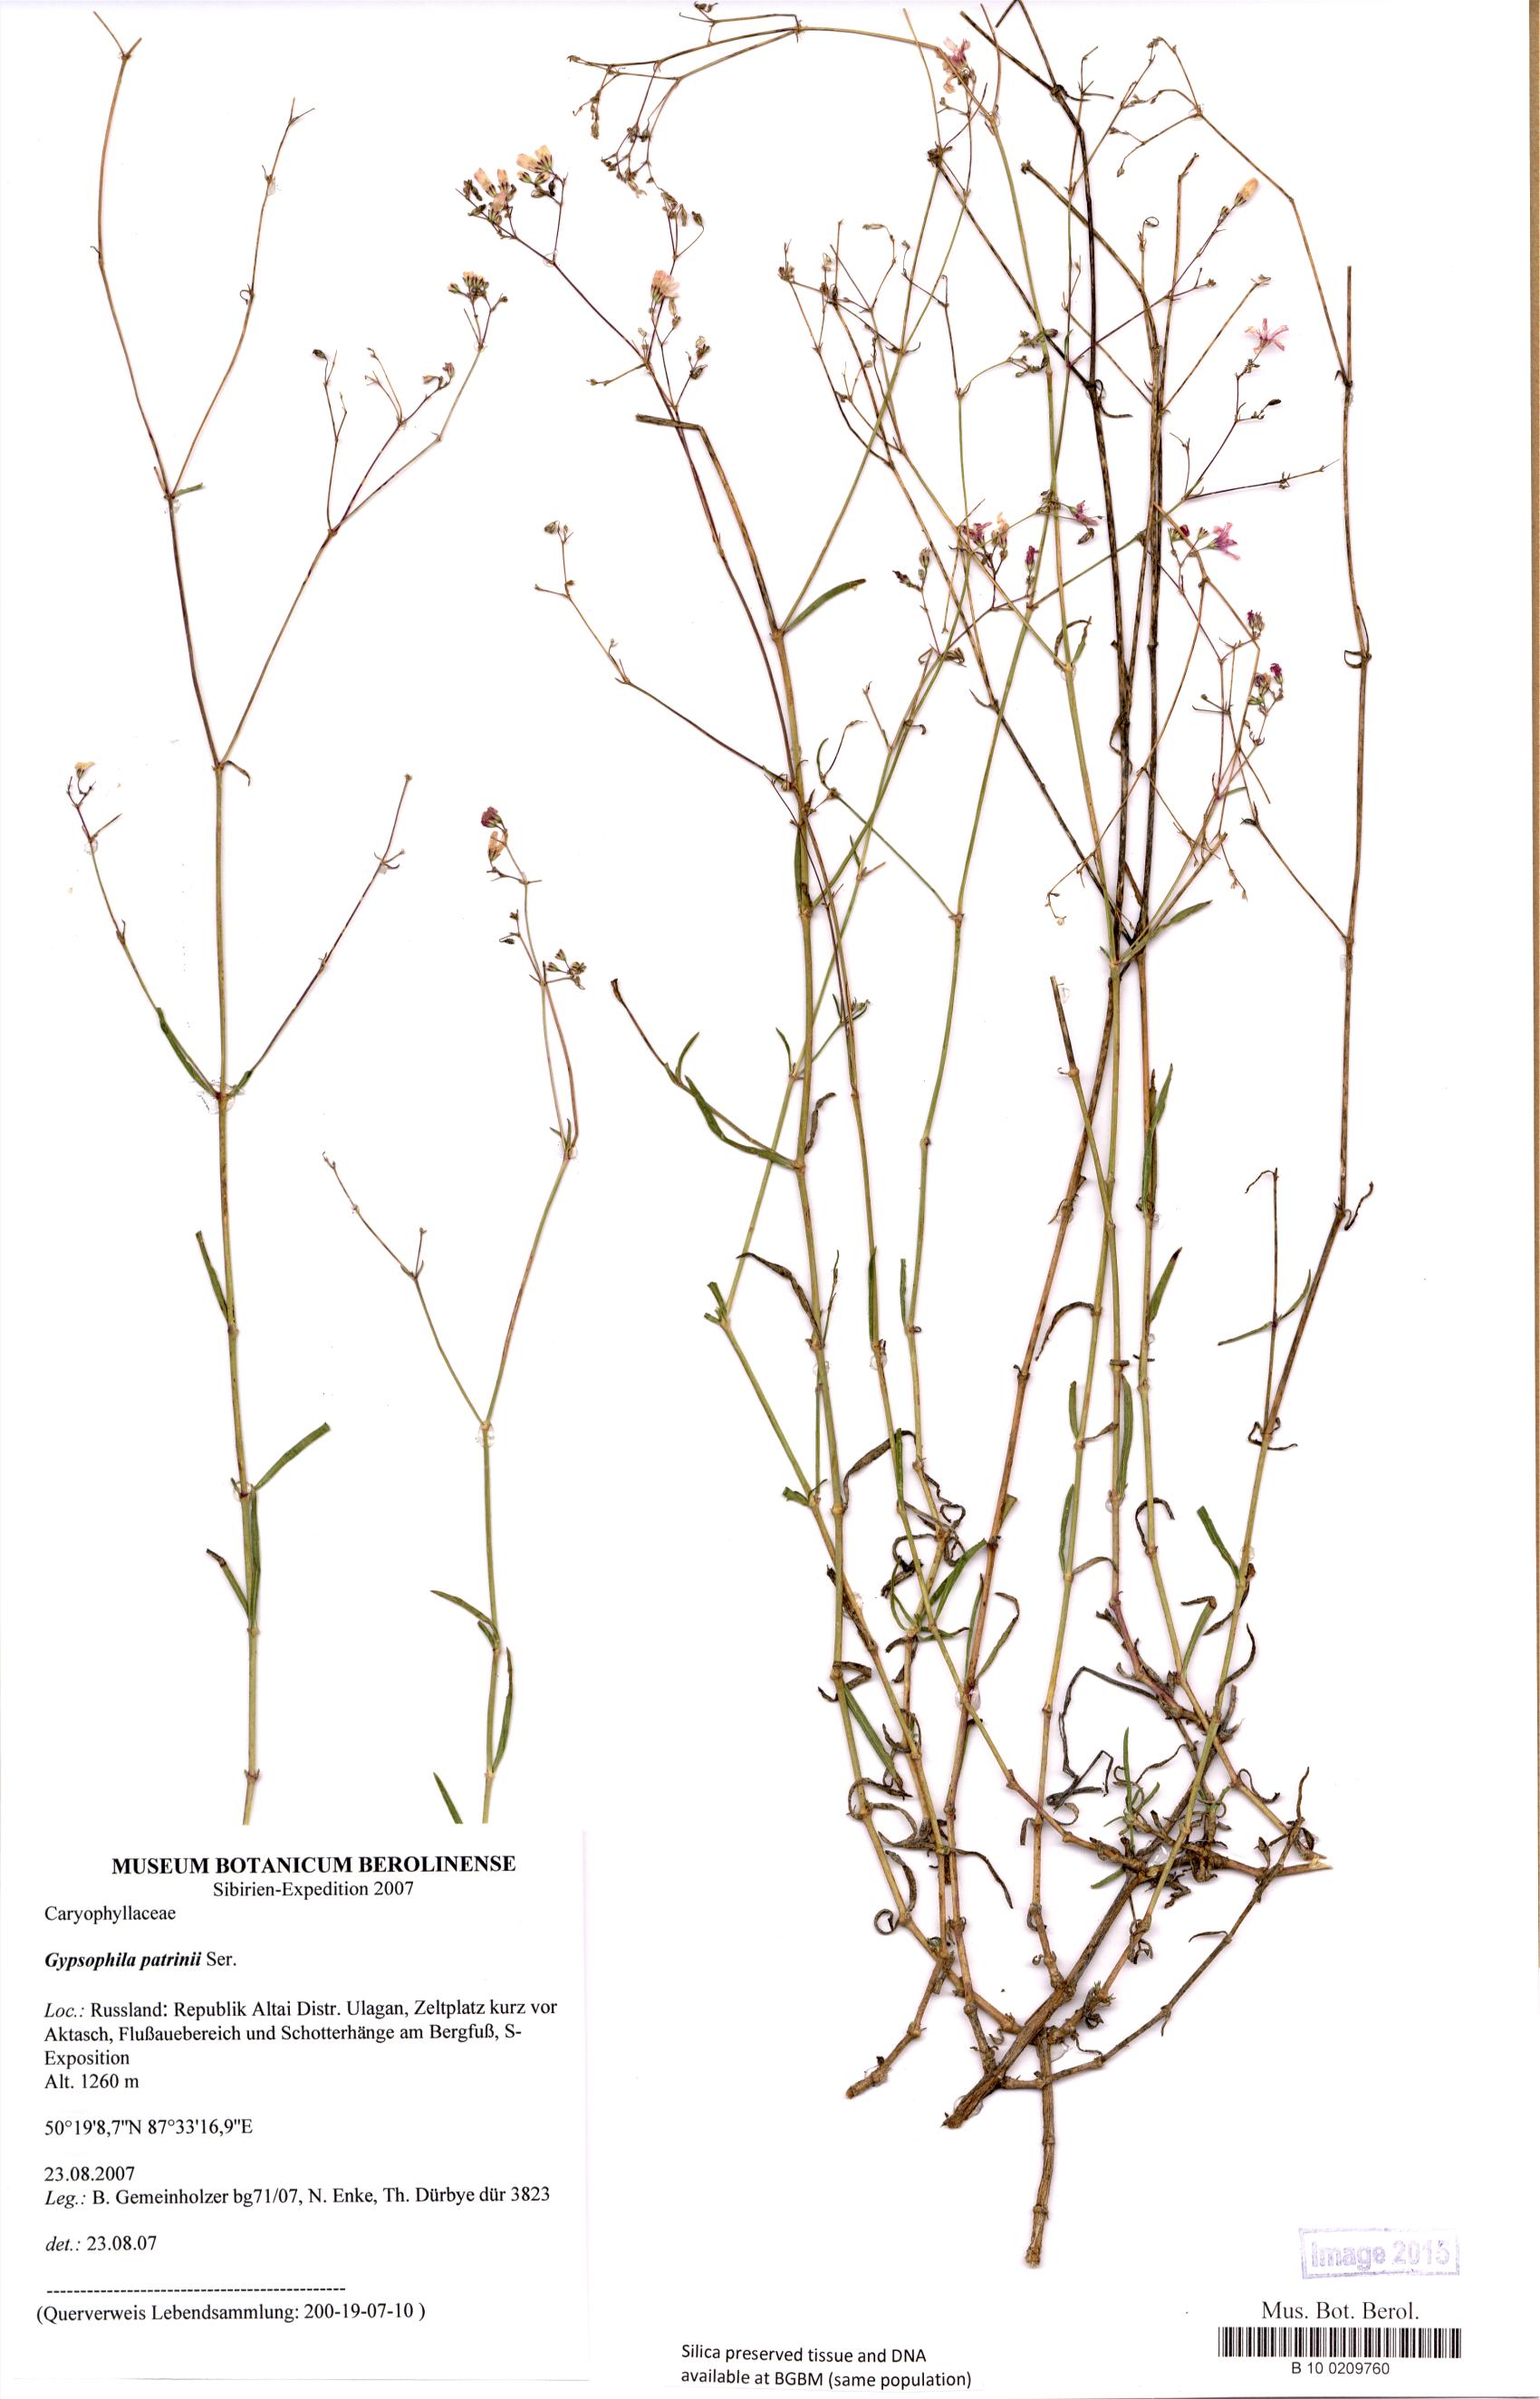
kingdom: Plantae
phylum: Tracheophyta
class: Magnoliopsida
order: Caryophyllales
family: Caryophyllaceae
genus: Gypsophila
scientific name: Gypsophila patrinii
